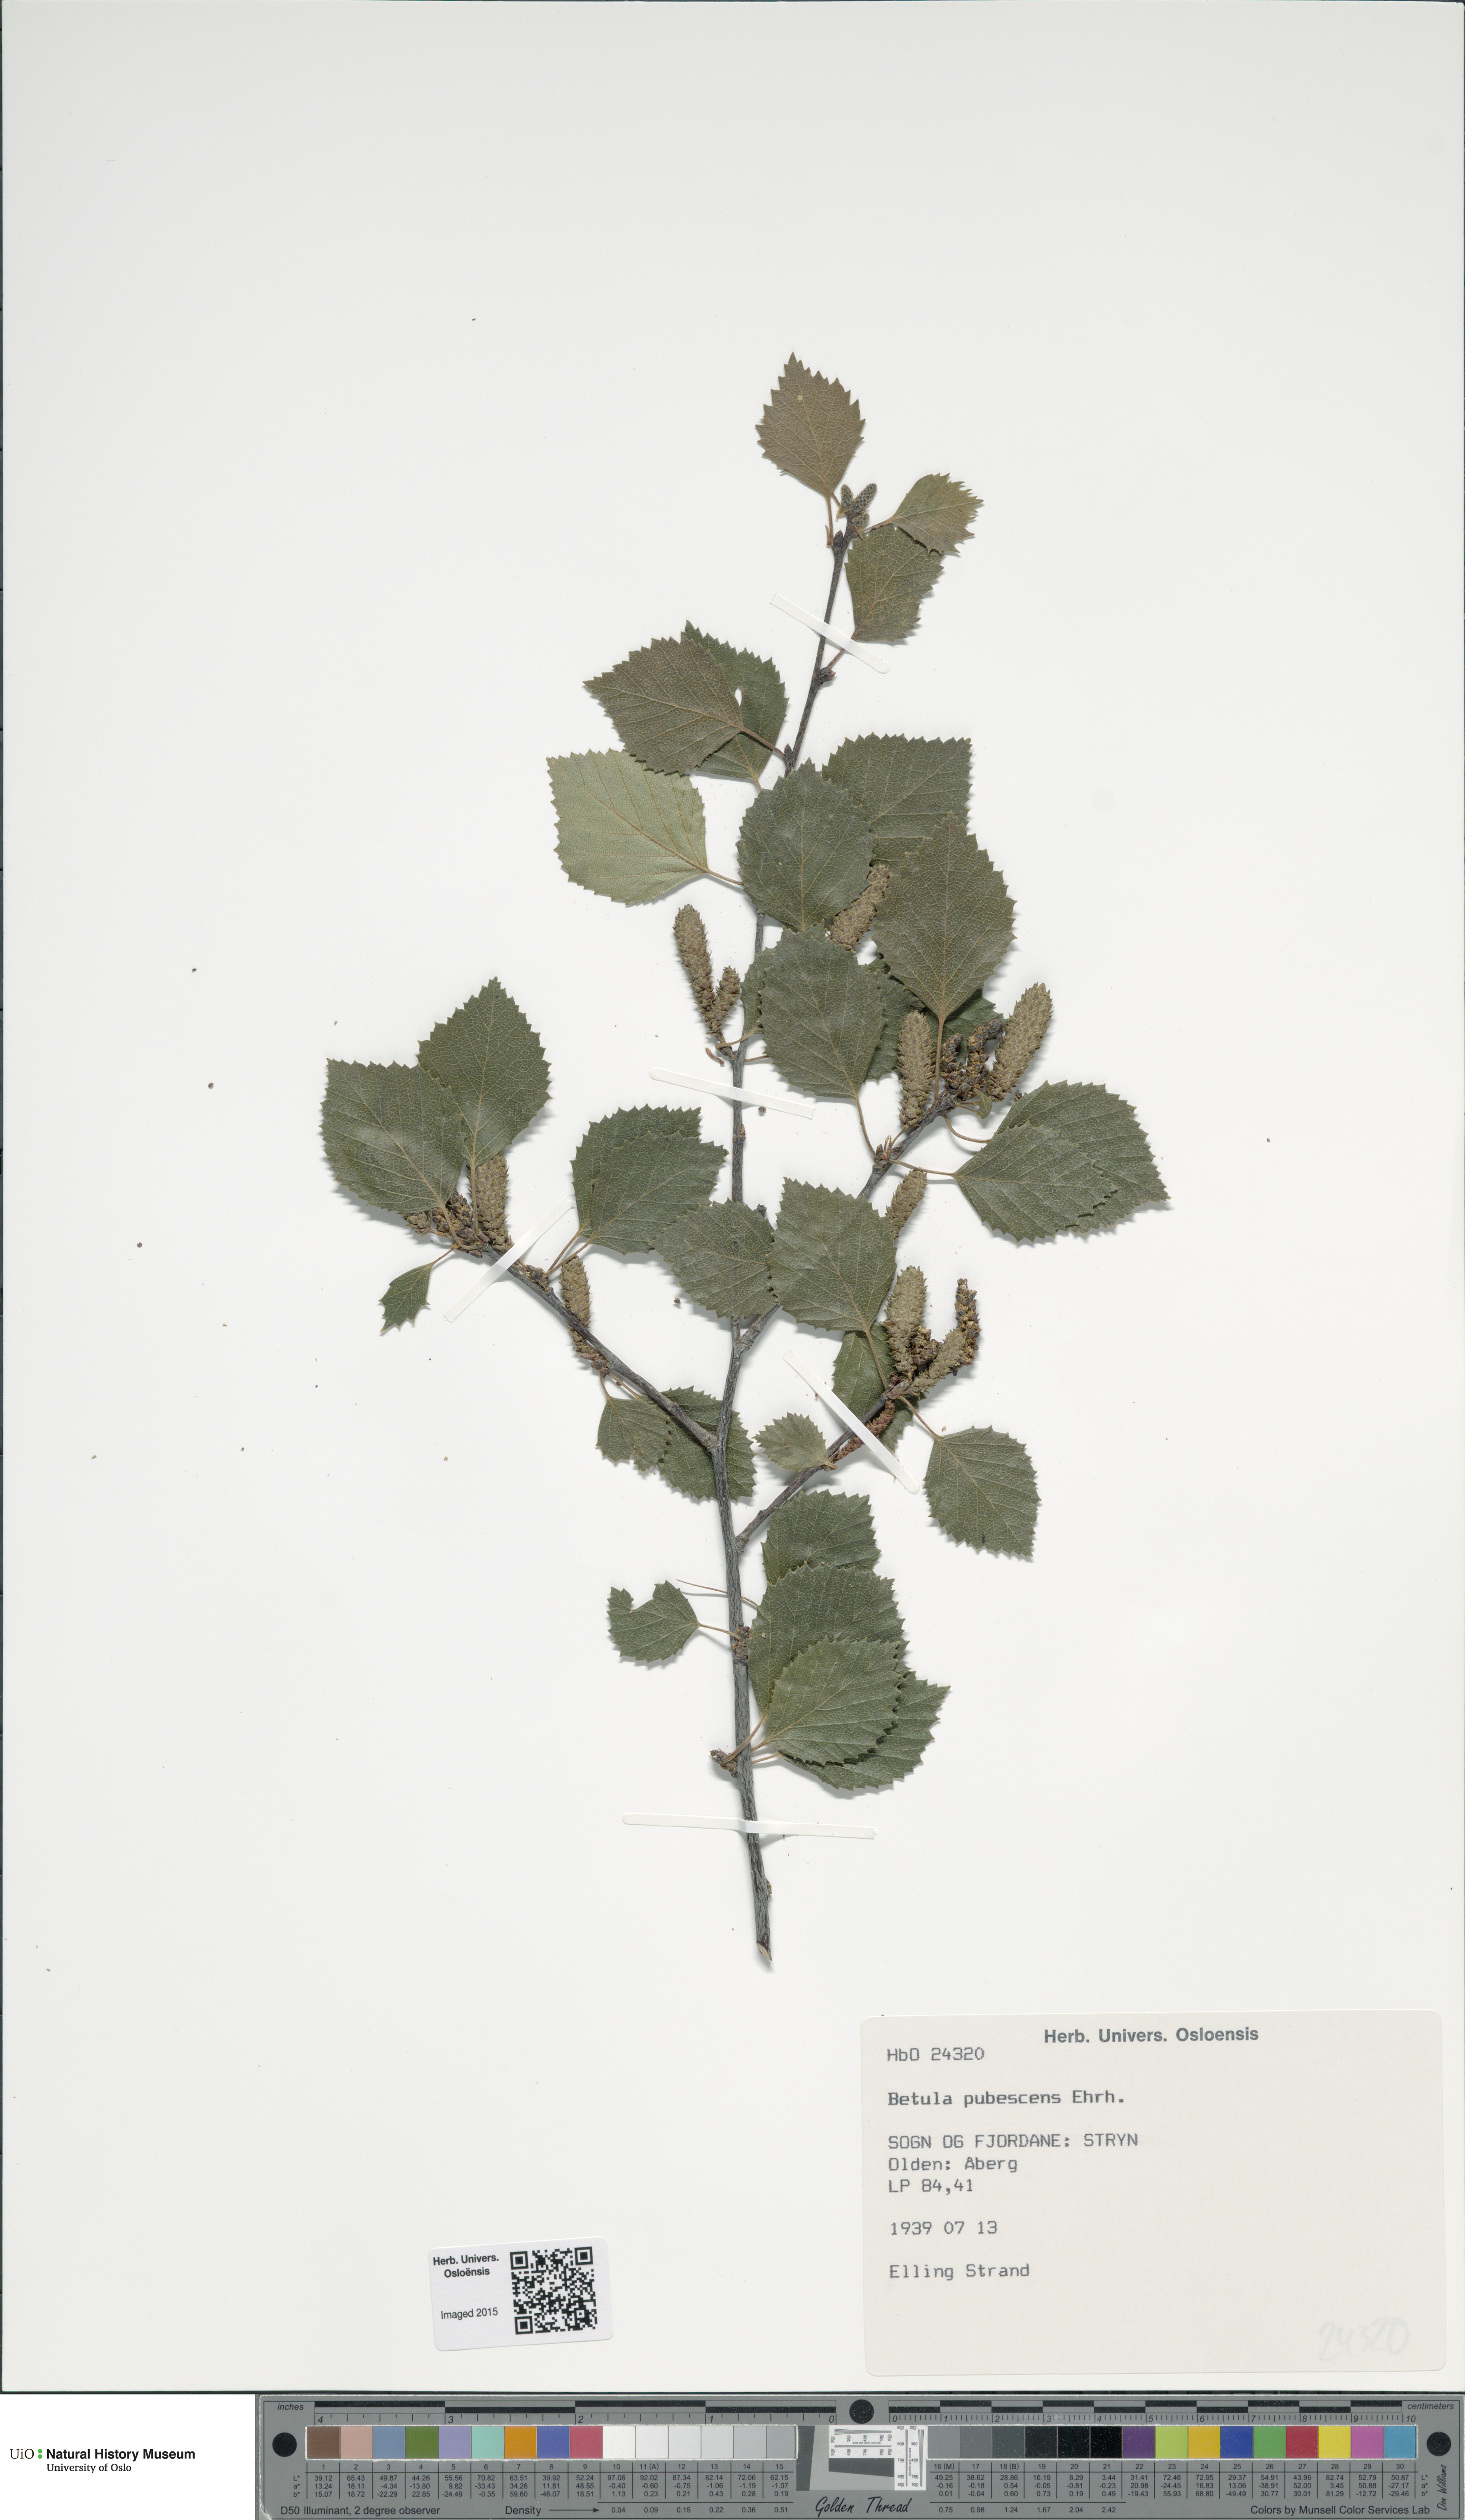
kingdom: Plantae
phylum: Tracheophyta
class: Magnoliopsida
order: Fagales
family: Betulaceae
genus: Betula
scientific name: Betula pubescens
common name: Downy birch
